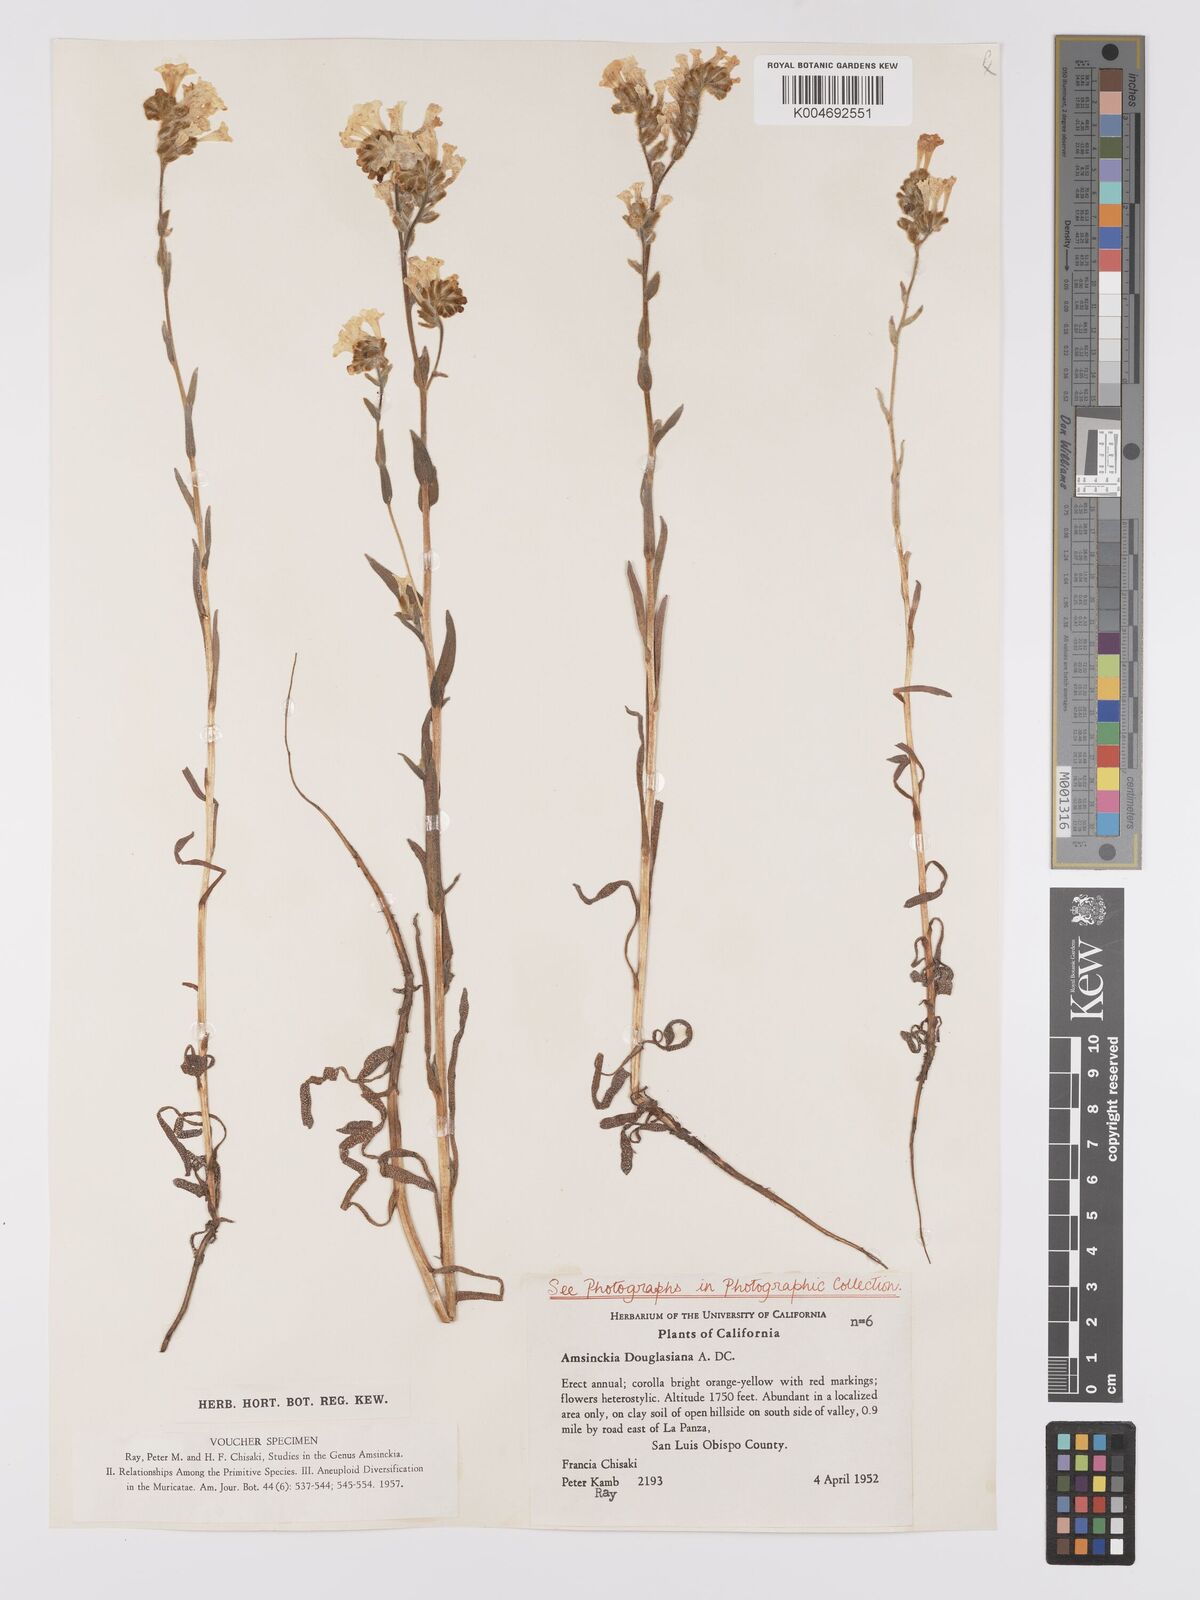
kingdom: Plantae
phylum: Tracheophyta
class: Magnoliopsida
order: Boraginales
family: Boraginaceae
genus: Amsinckia
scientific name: Amsinckia douglasiana
